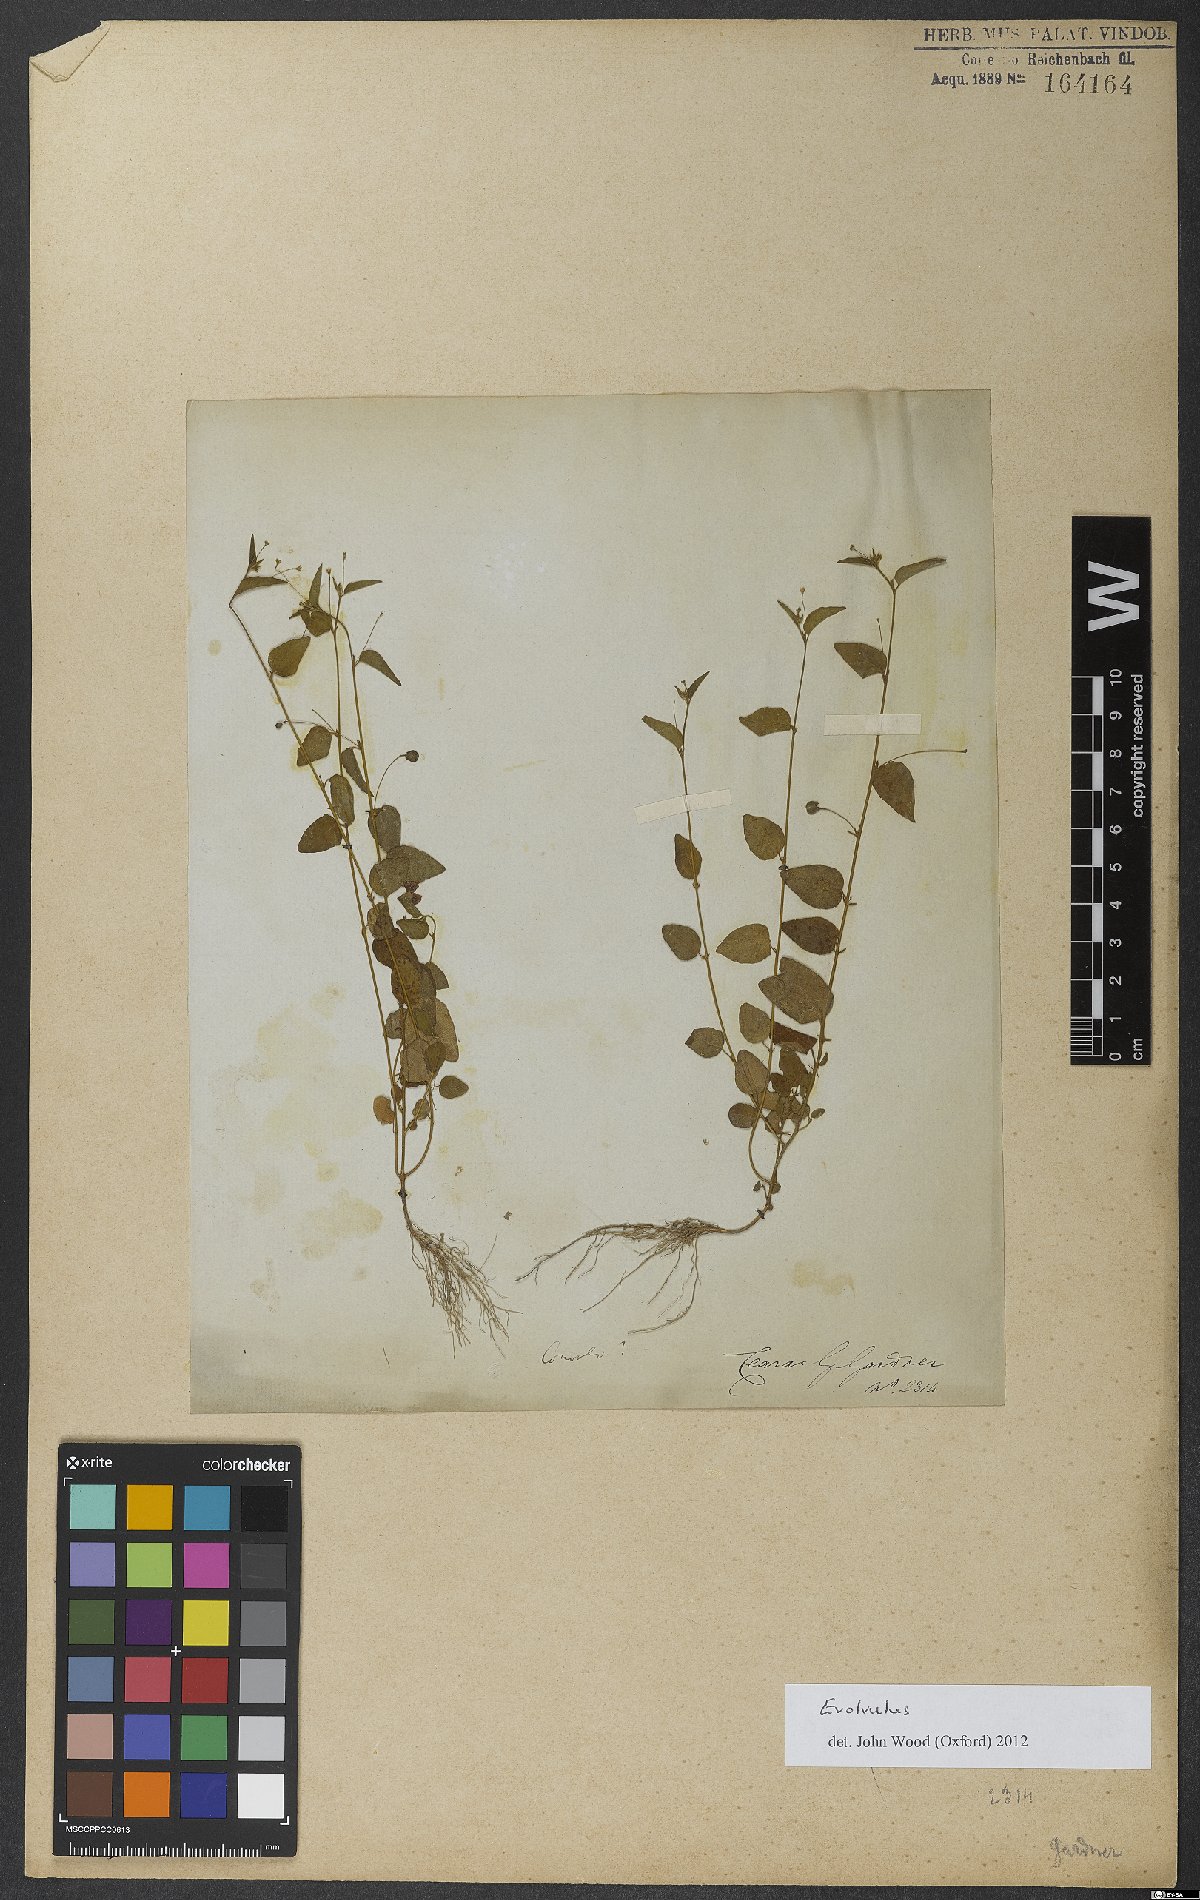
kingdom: Plantae
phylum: Tracheophyta
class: Magnoliopsida
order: Solanales
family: Convolvulaceae
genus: Evolvulus
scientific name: Evolvulus
